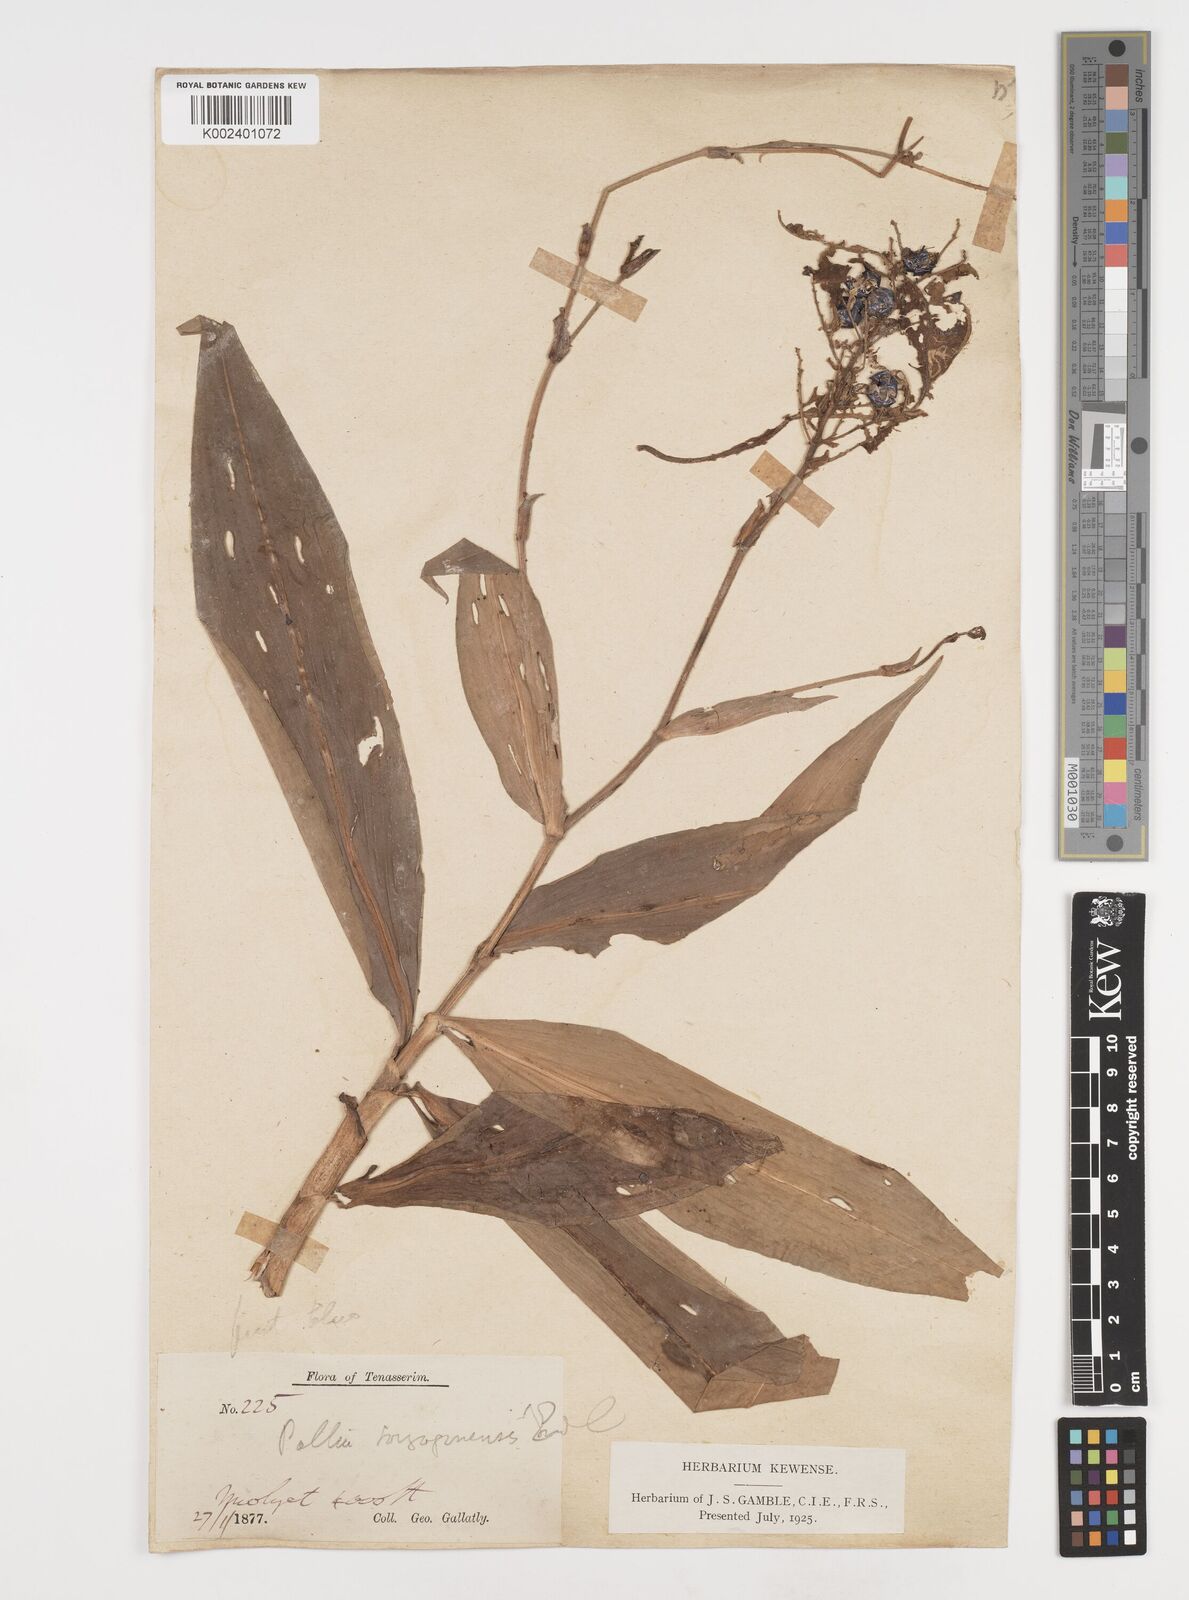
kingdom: Plantae
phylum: Tracheophyta
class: Liliopsida
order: Commelinales
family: Commelinaceae
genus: Pollia
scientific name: Pollia secundiflora
